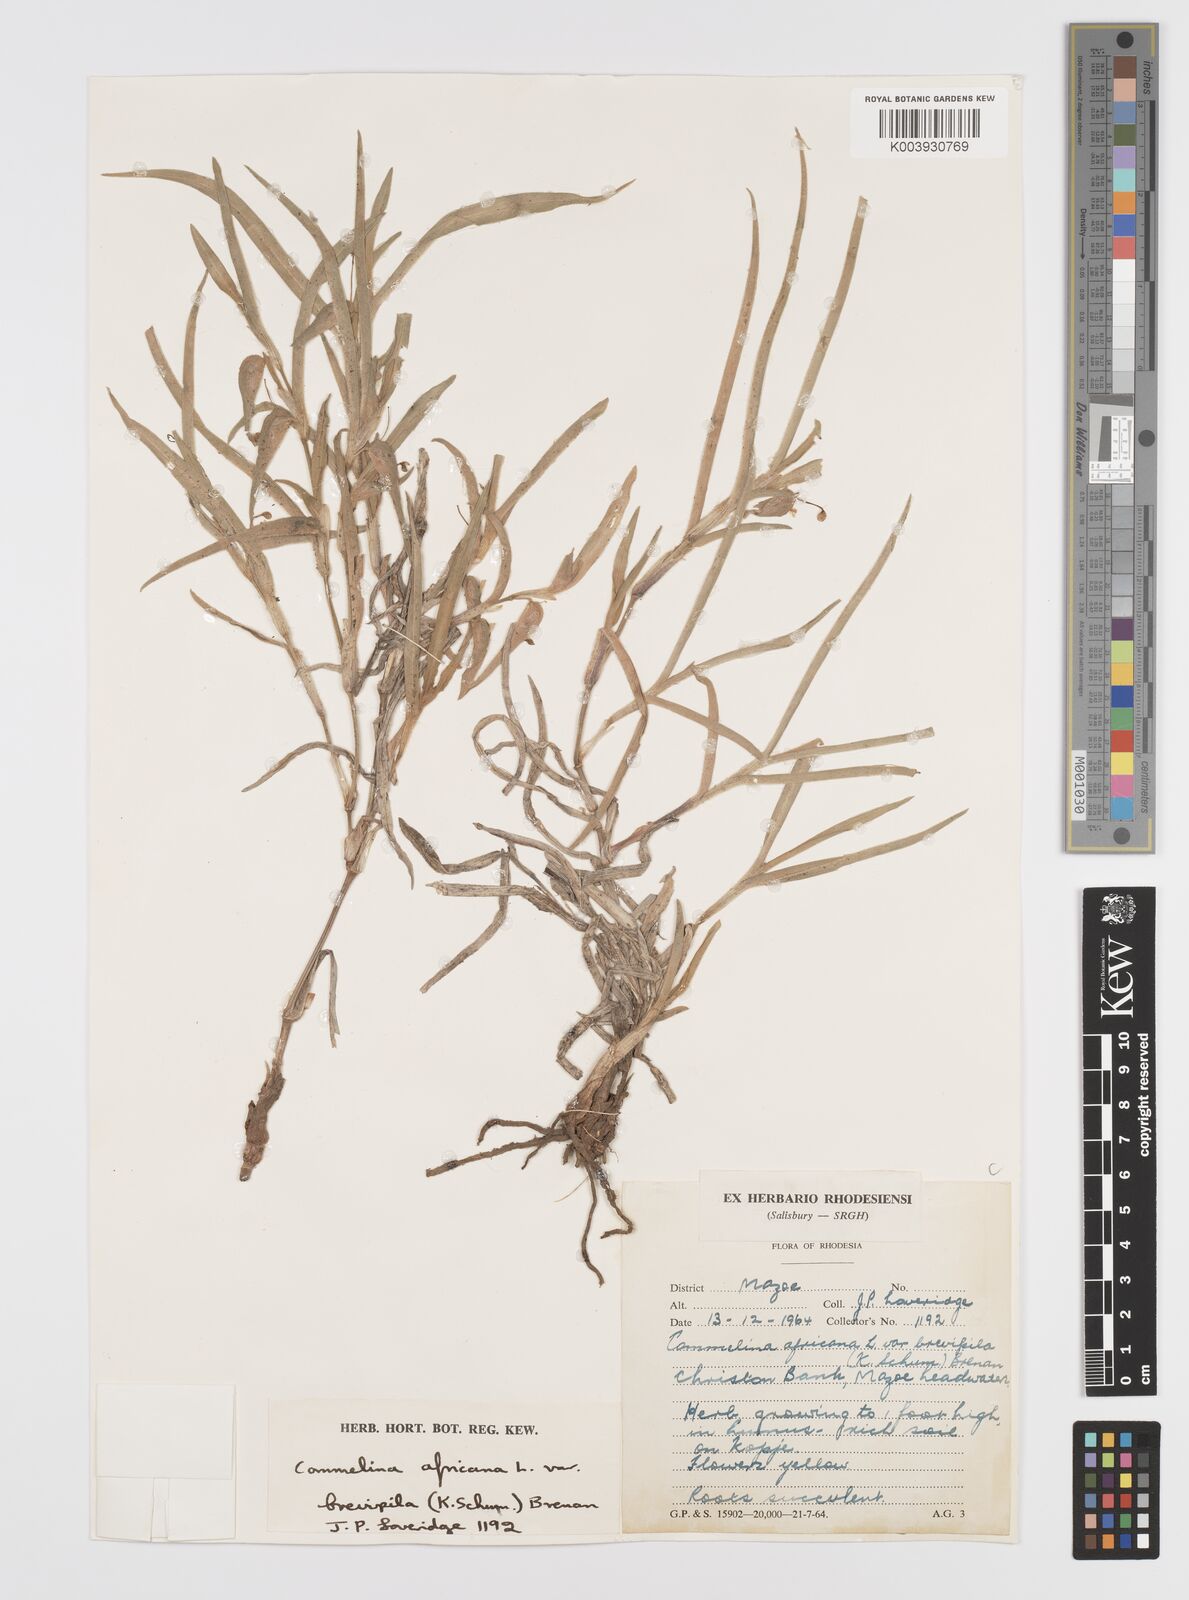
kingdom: Plantae
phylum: Tracheophyta
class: Liliopsida
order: Commelinales
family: Commelinaceae
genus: Commelina
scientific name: Commelina africana
